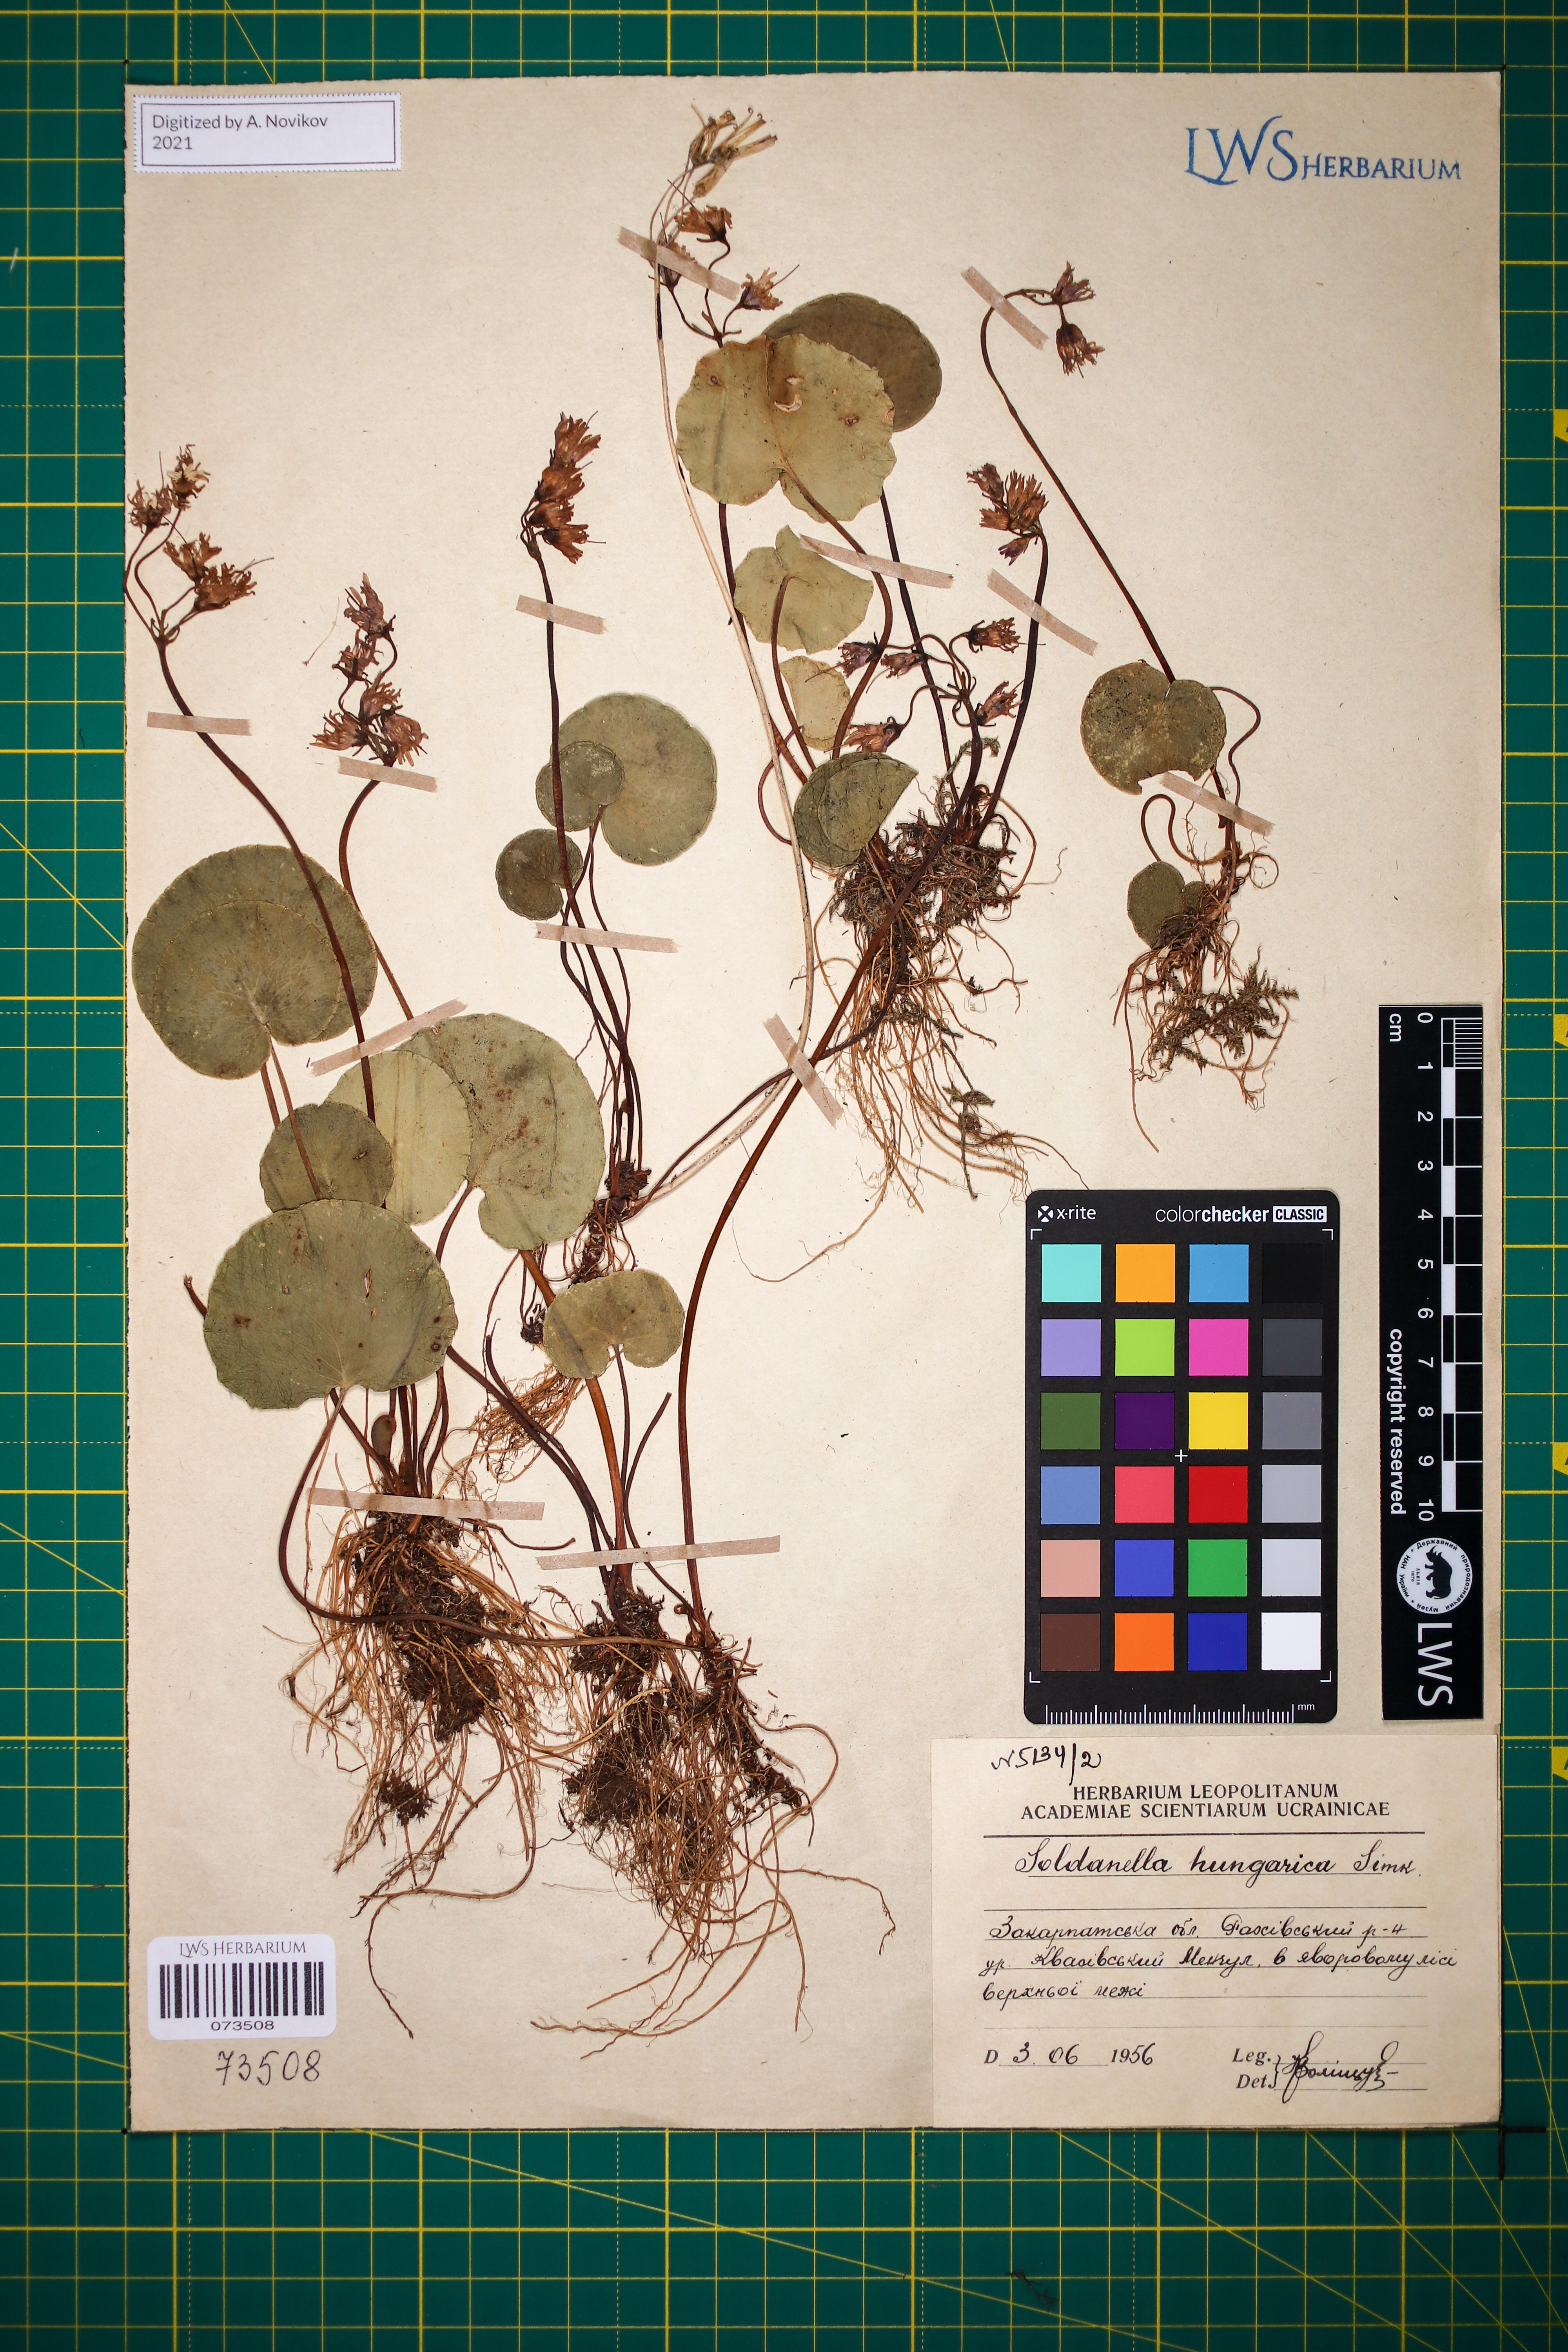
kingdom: Plantae
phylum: Tracheophyta
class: Magnoliopsida
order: Ericales
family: Primulaceae
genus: Soldanella
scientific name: Soldanella hungarica
